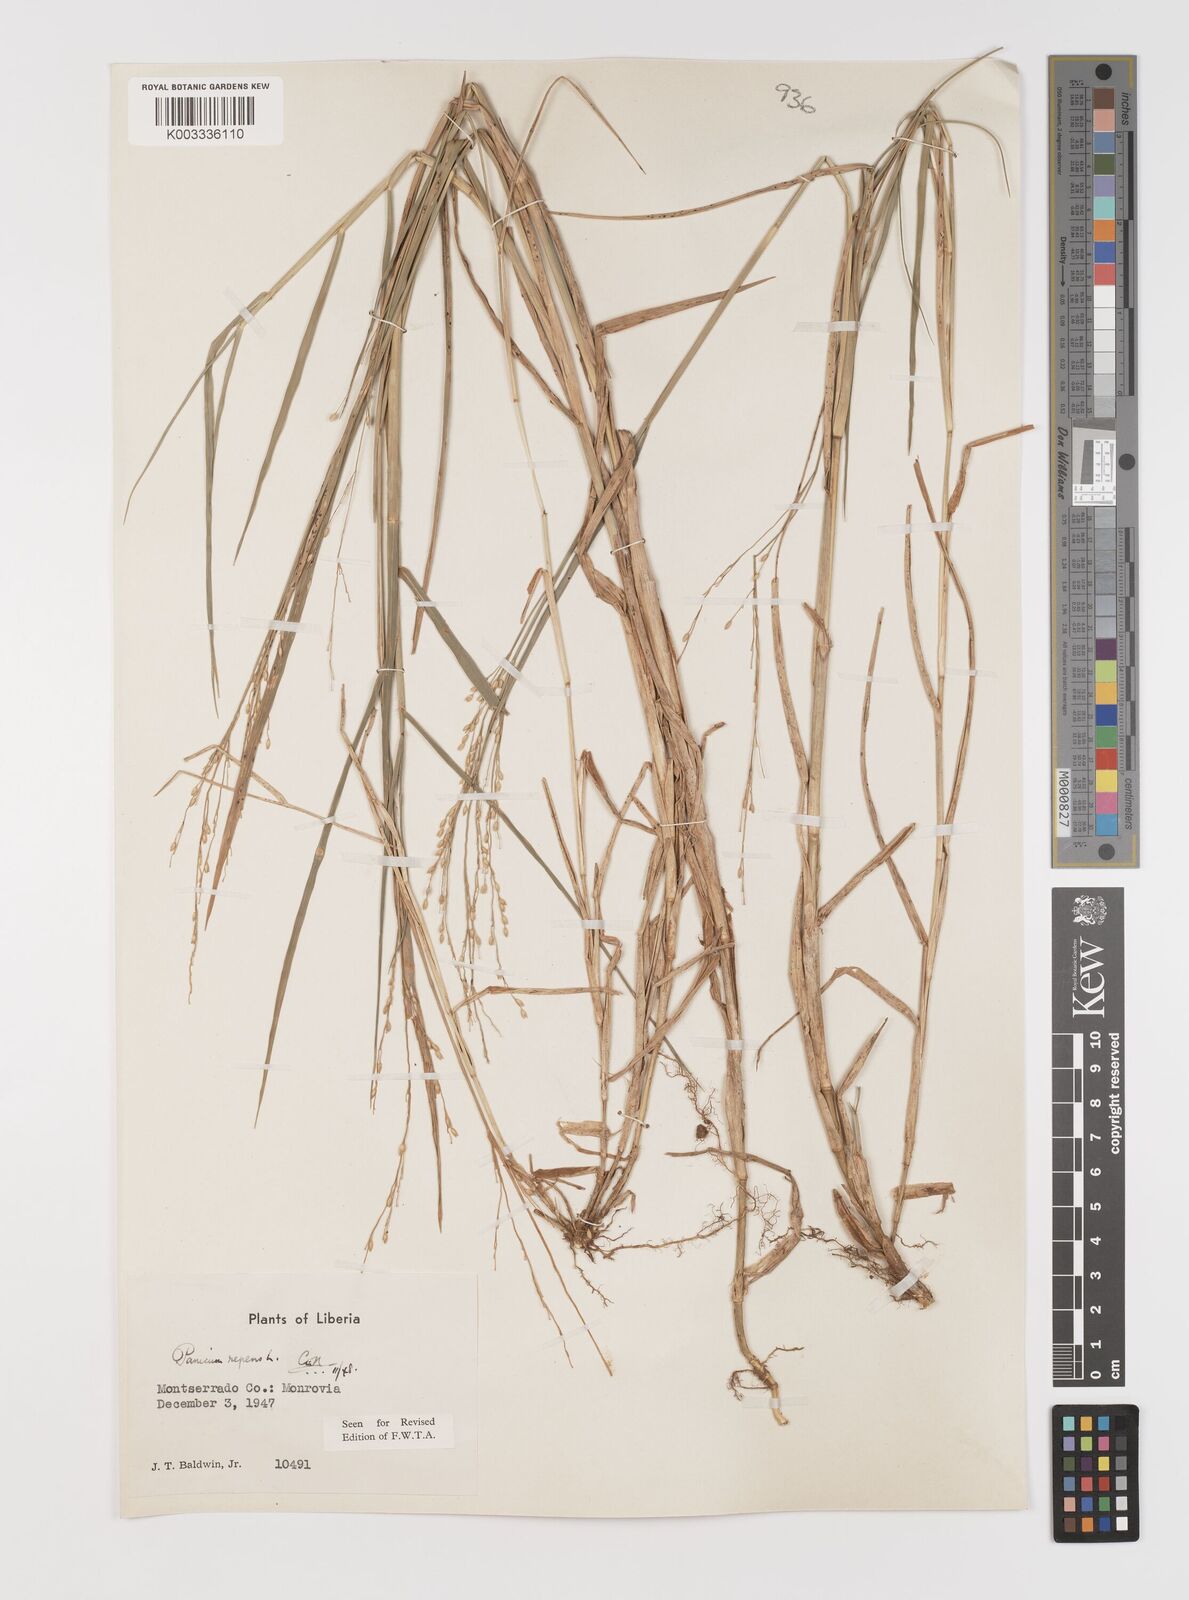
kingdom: Plantae
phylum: Tracheophyta
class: Liliopsida
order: Poales
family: Poaceae
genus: Panicum
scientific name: Panicum repens
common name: Torpedo grass
